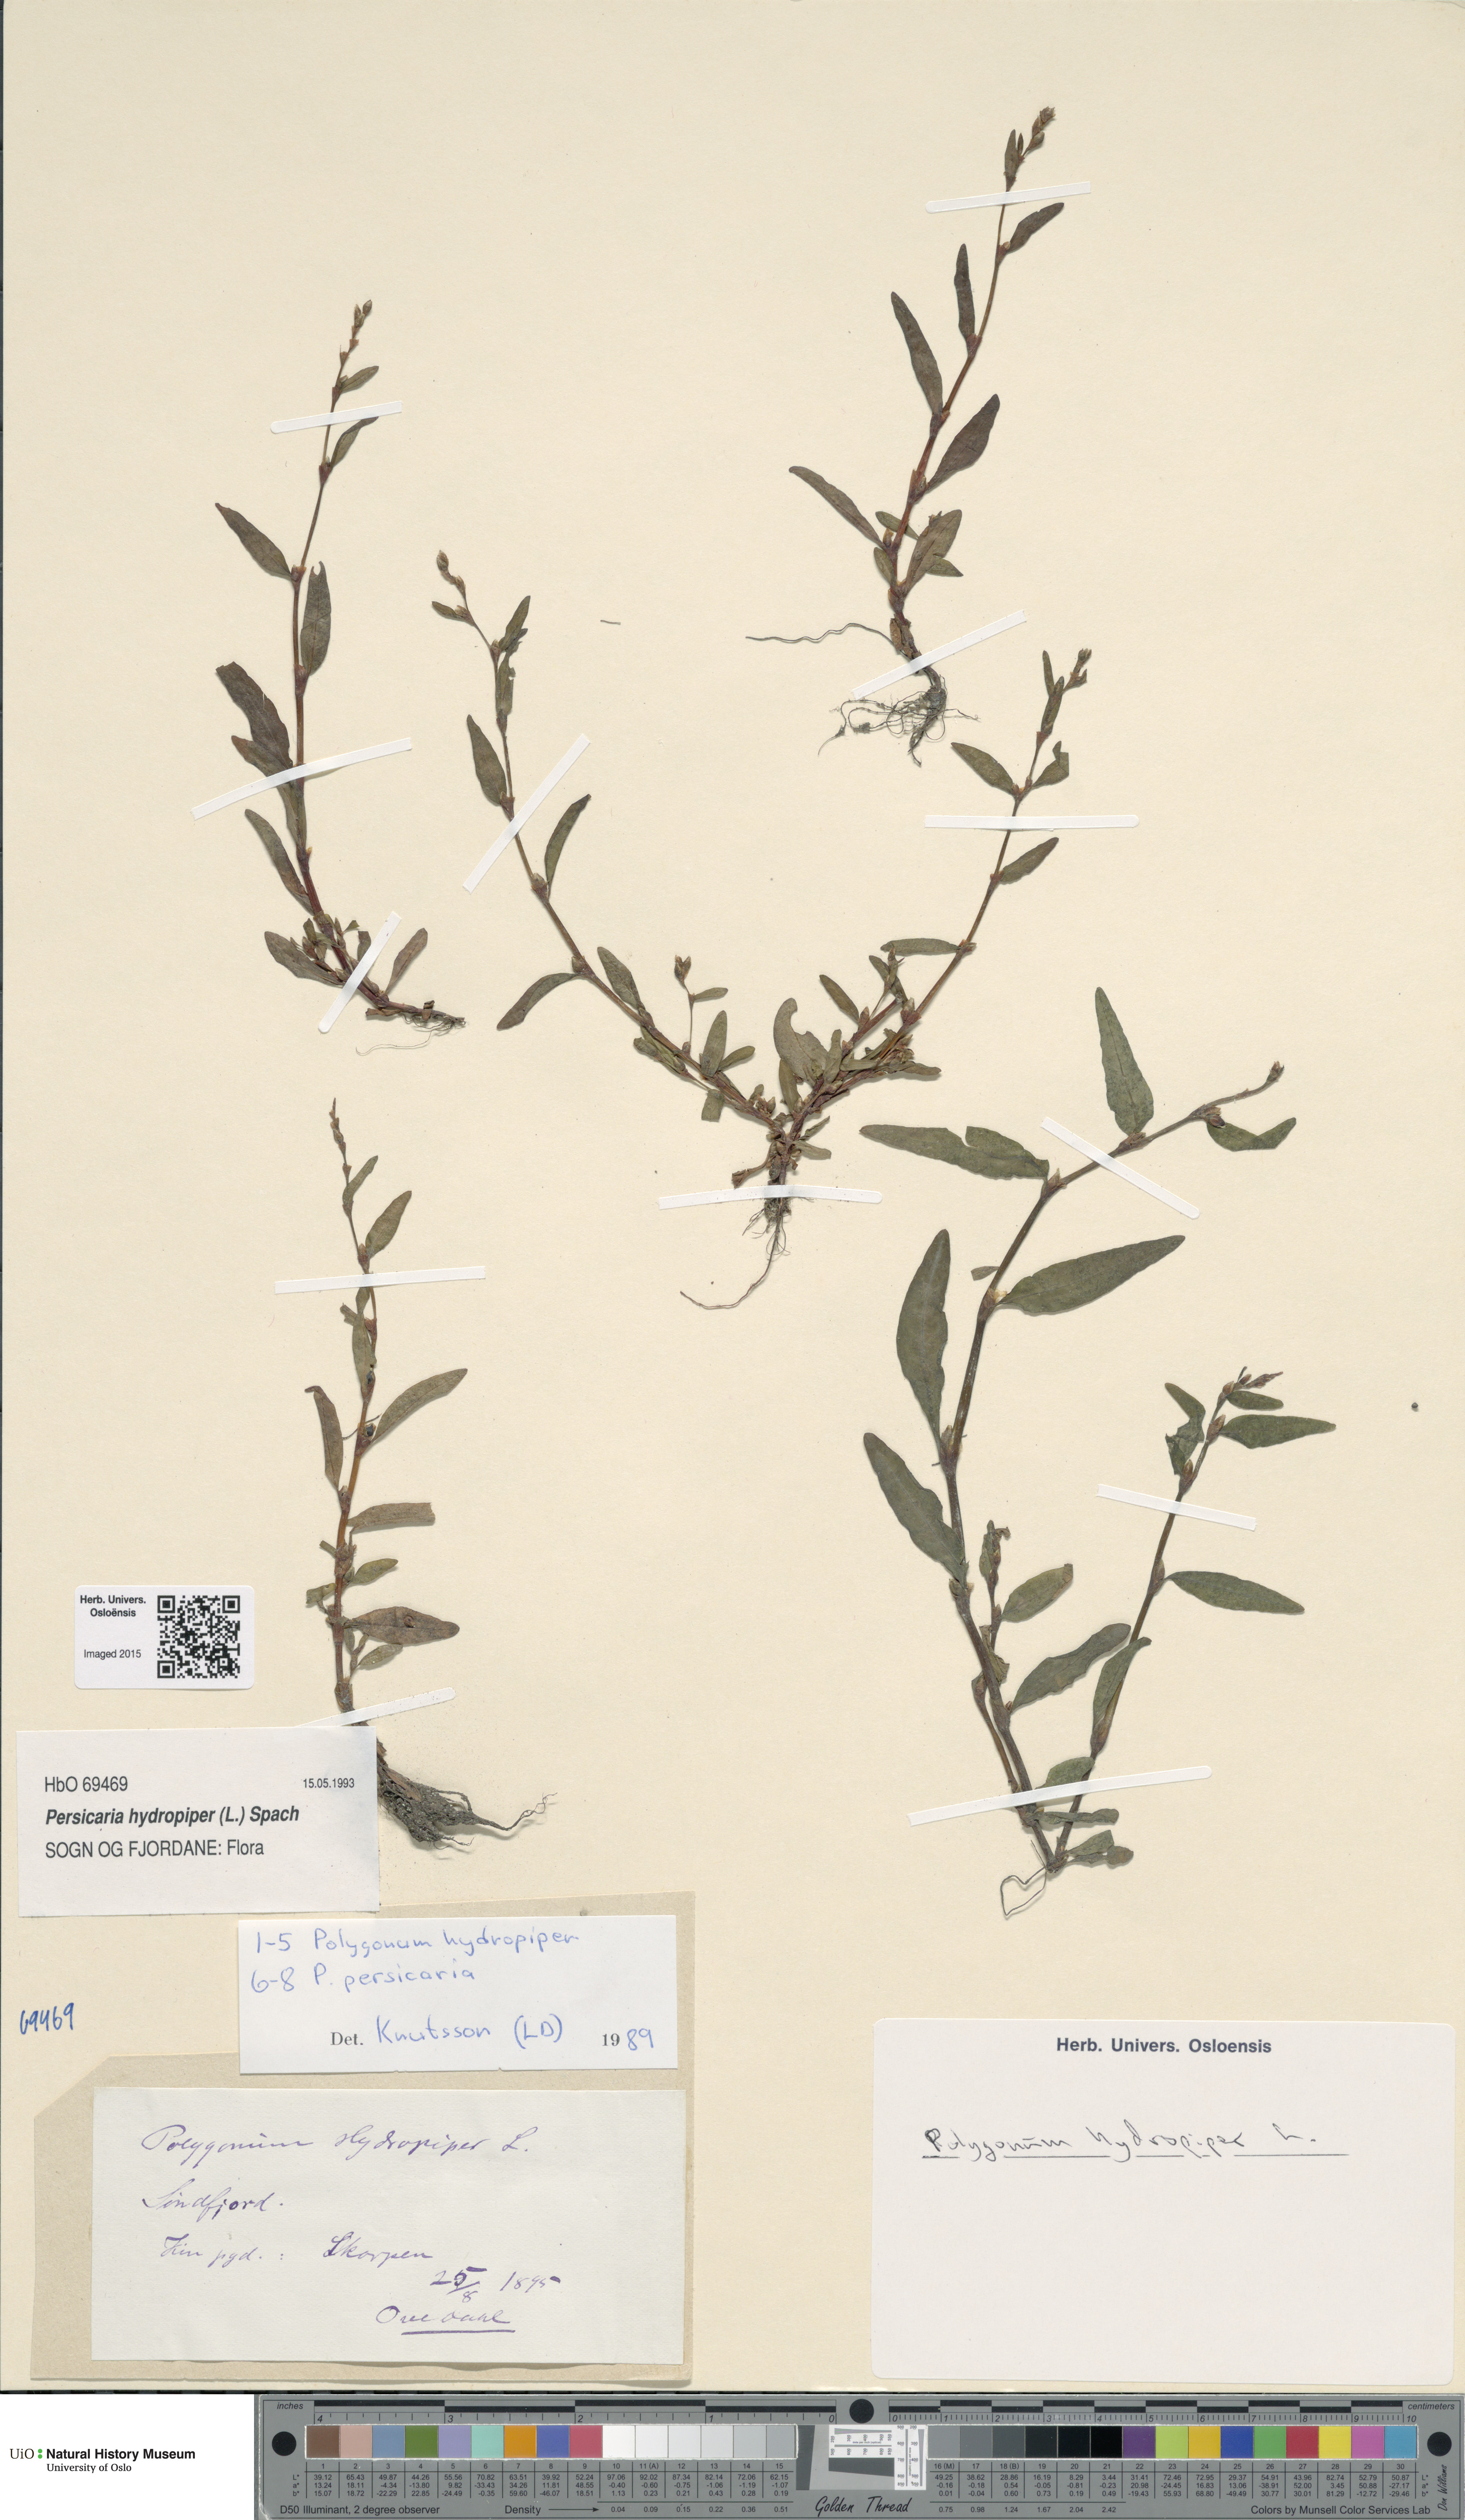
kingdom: Plantae
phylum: Tracheophyta
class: Magnoliopsida
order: Caryophyllales
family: Polygonaceae
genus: Persicaria
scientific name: Persicaria hydropiper
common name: Water-pepper
